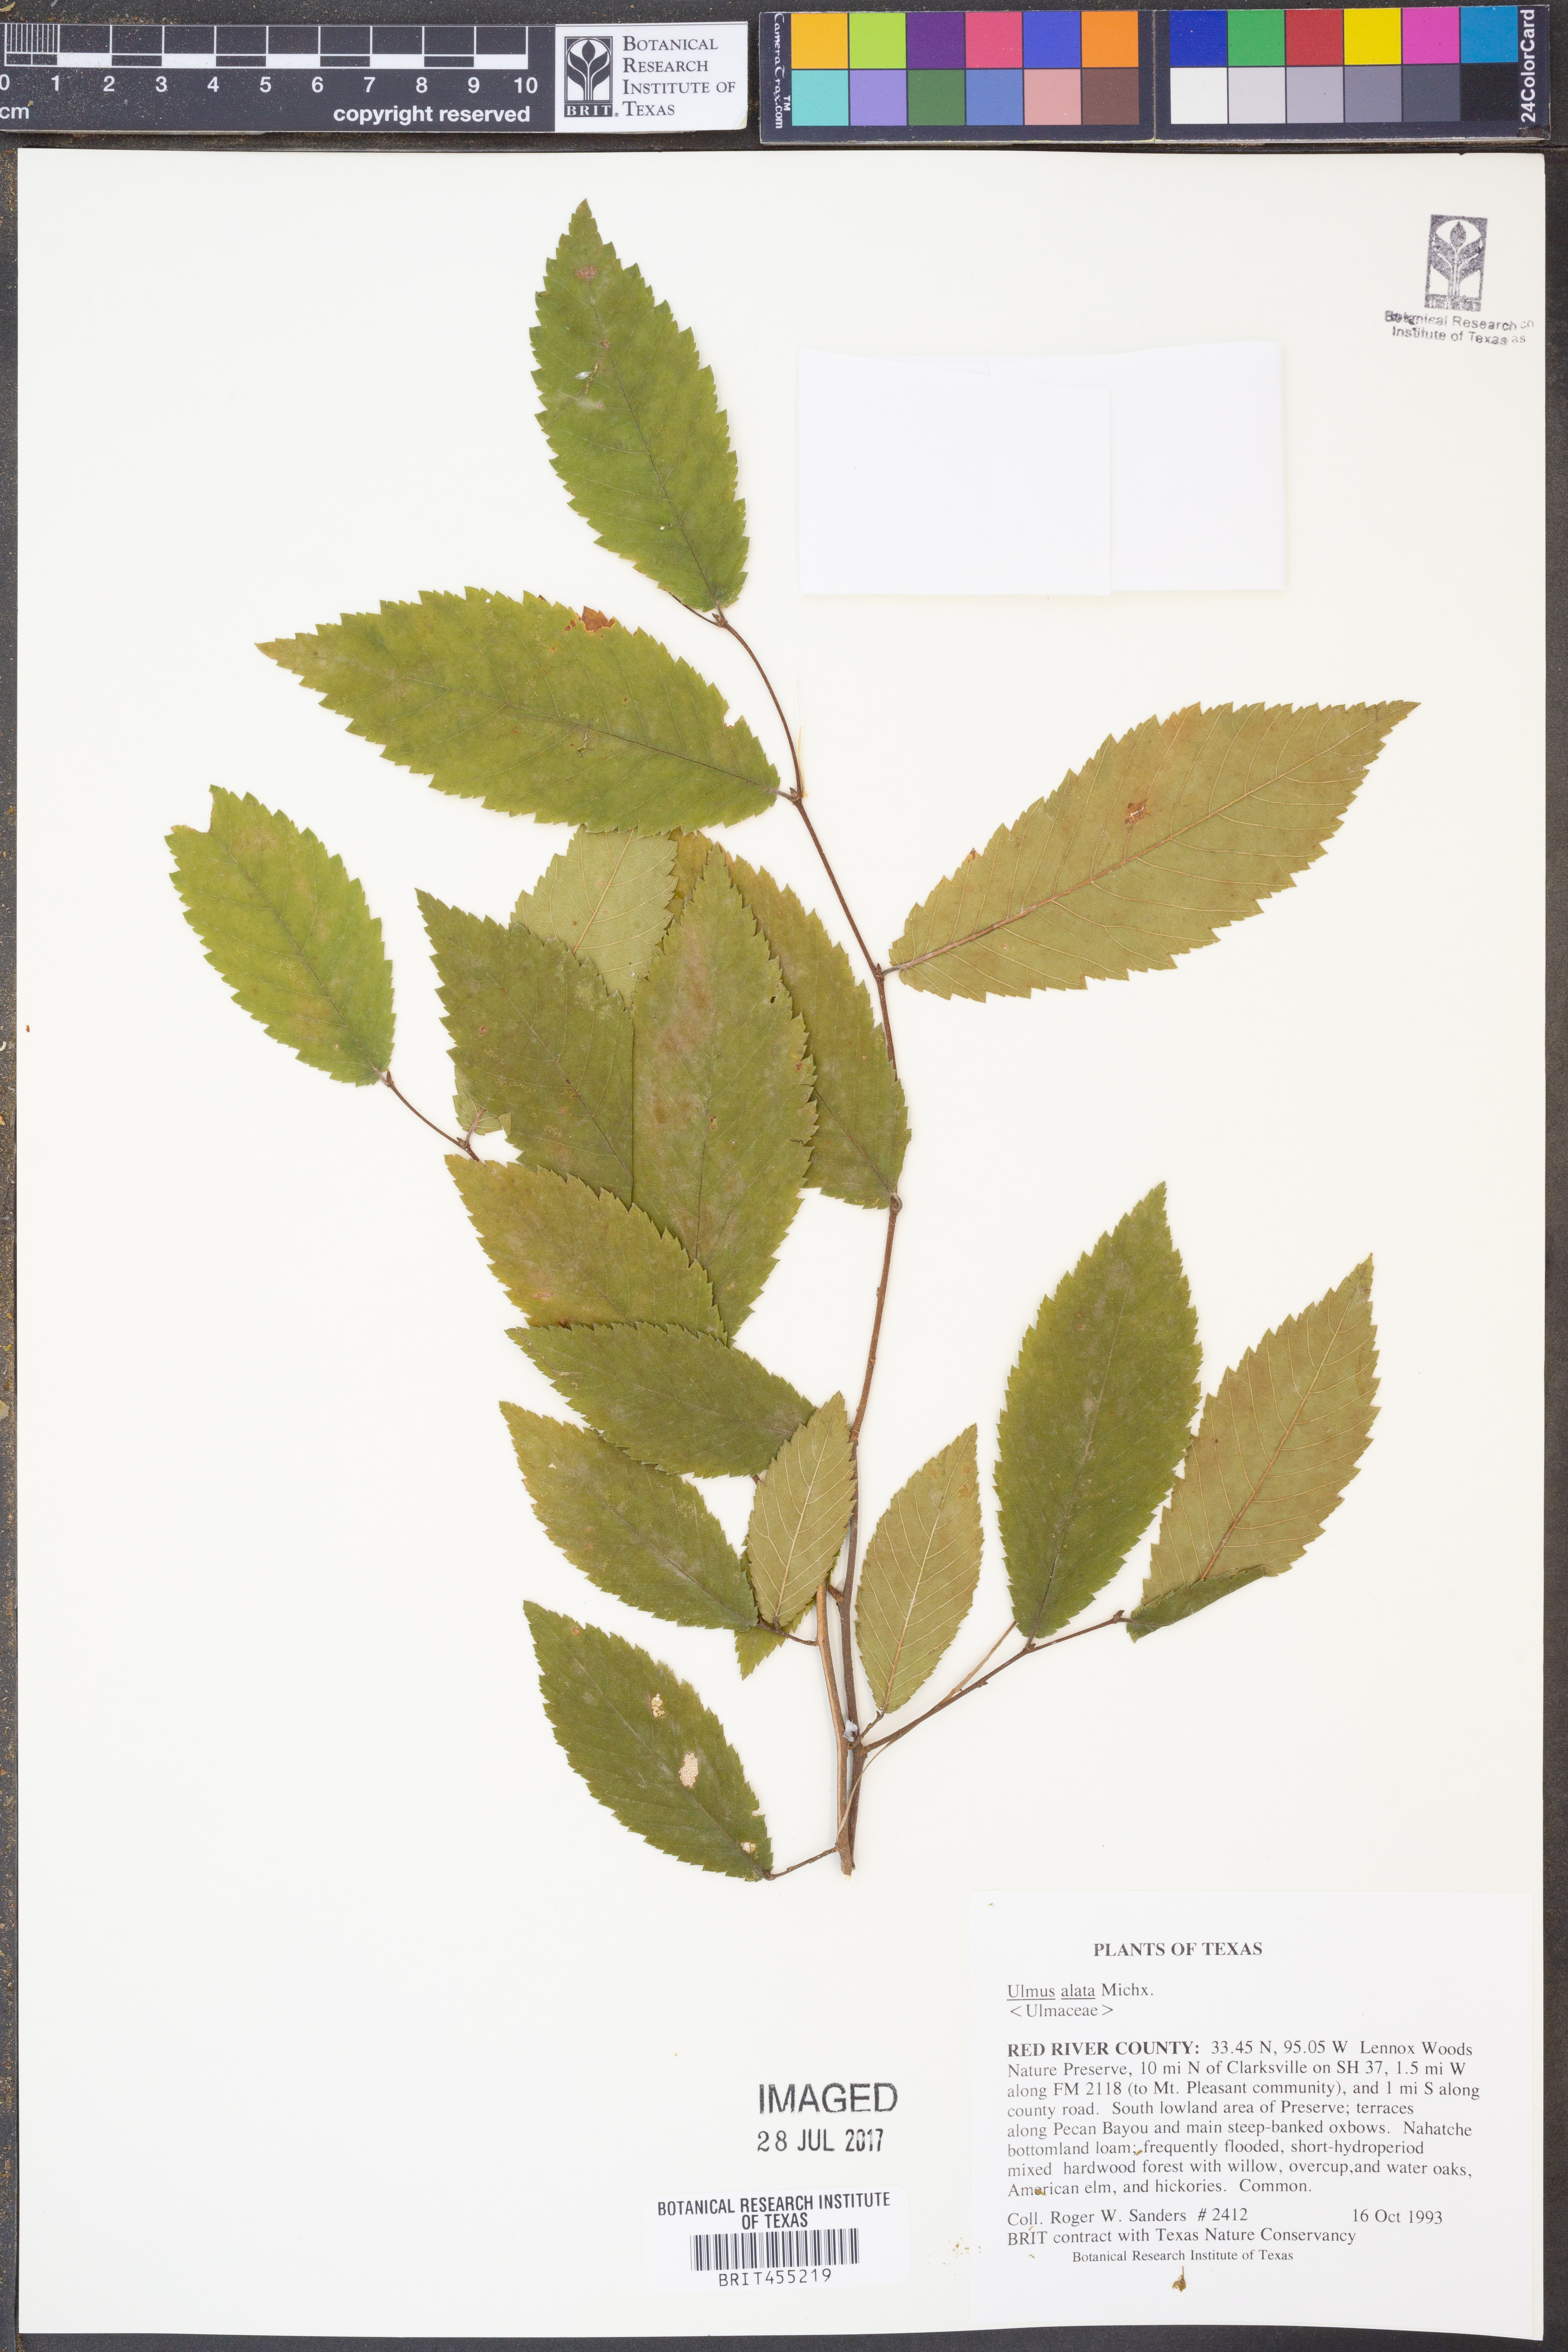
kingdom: Plantae
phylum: Tracheophyta
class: Magnoliopsida
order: Rosales
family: Ulmaceae
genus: Ulmus
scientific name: Ulmus alata
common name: Winged elm
